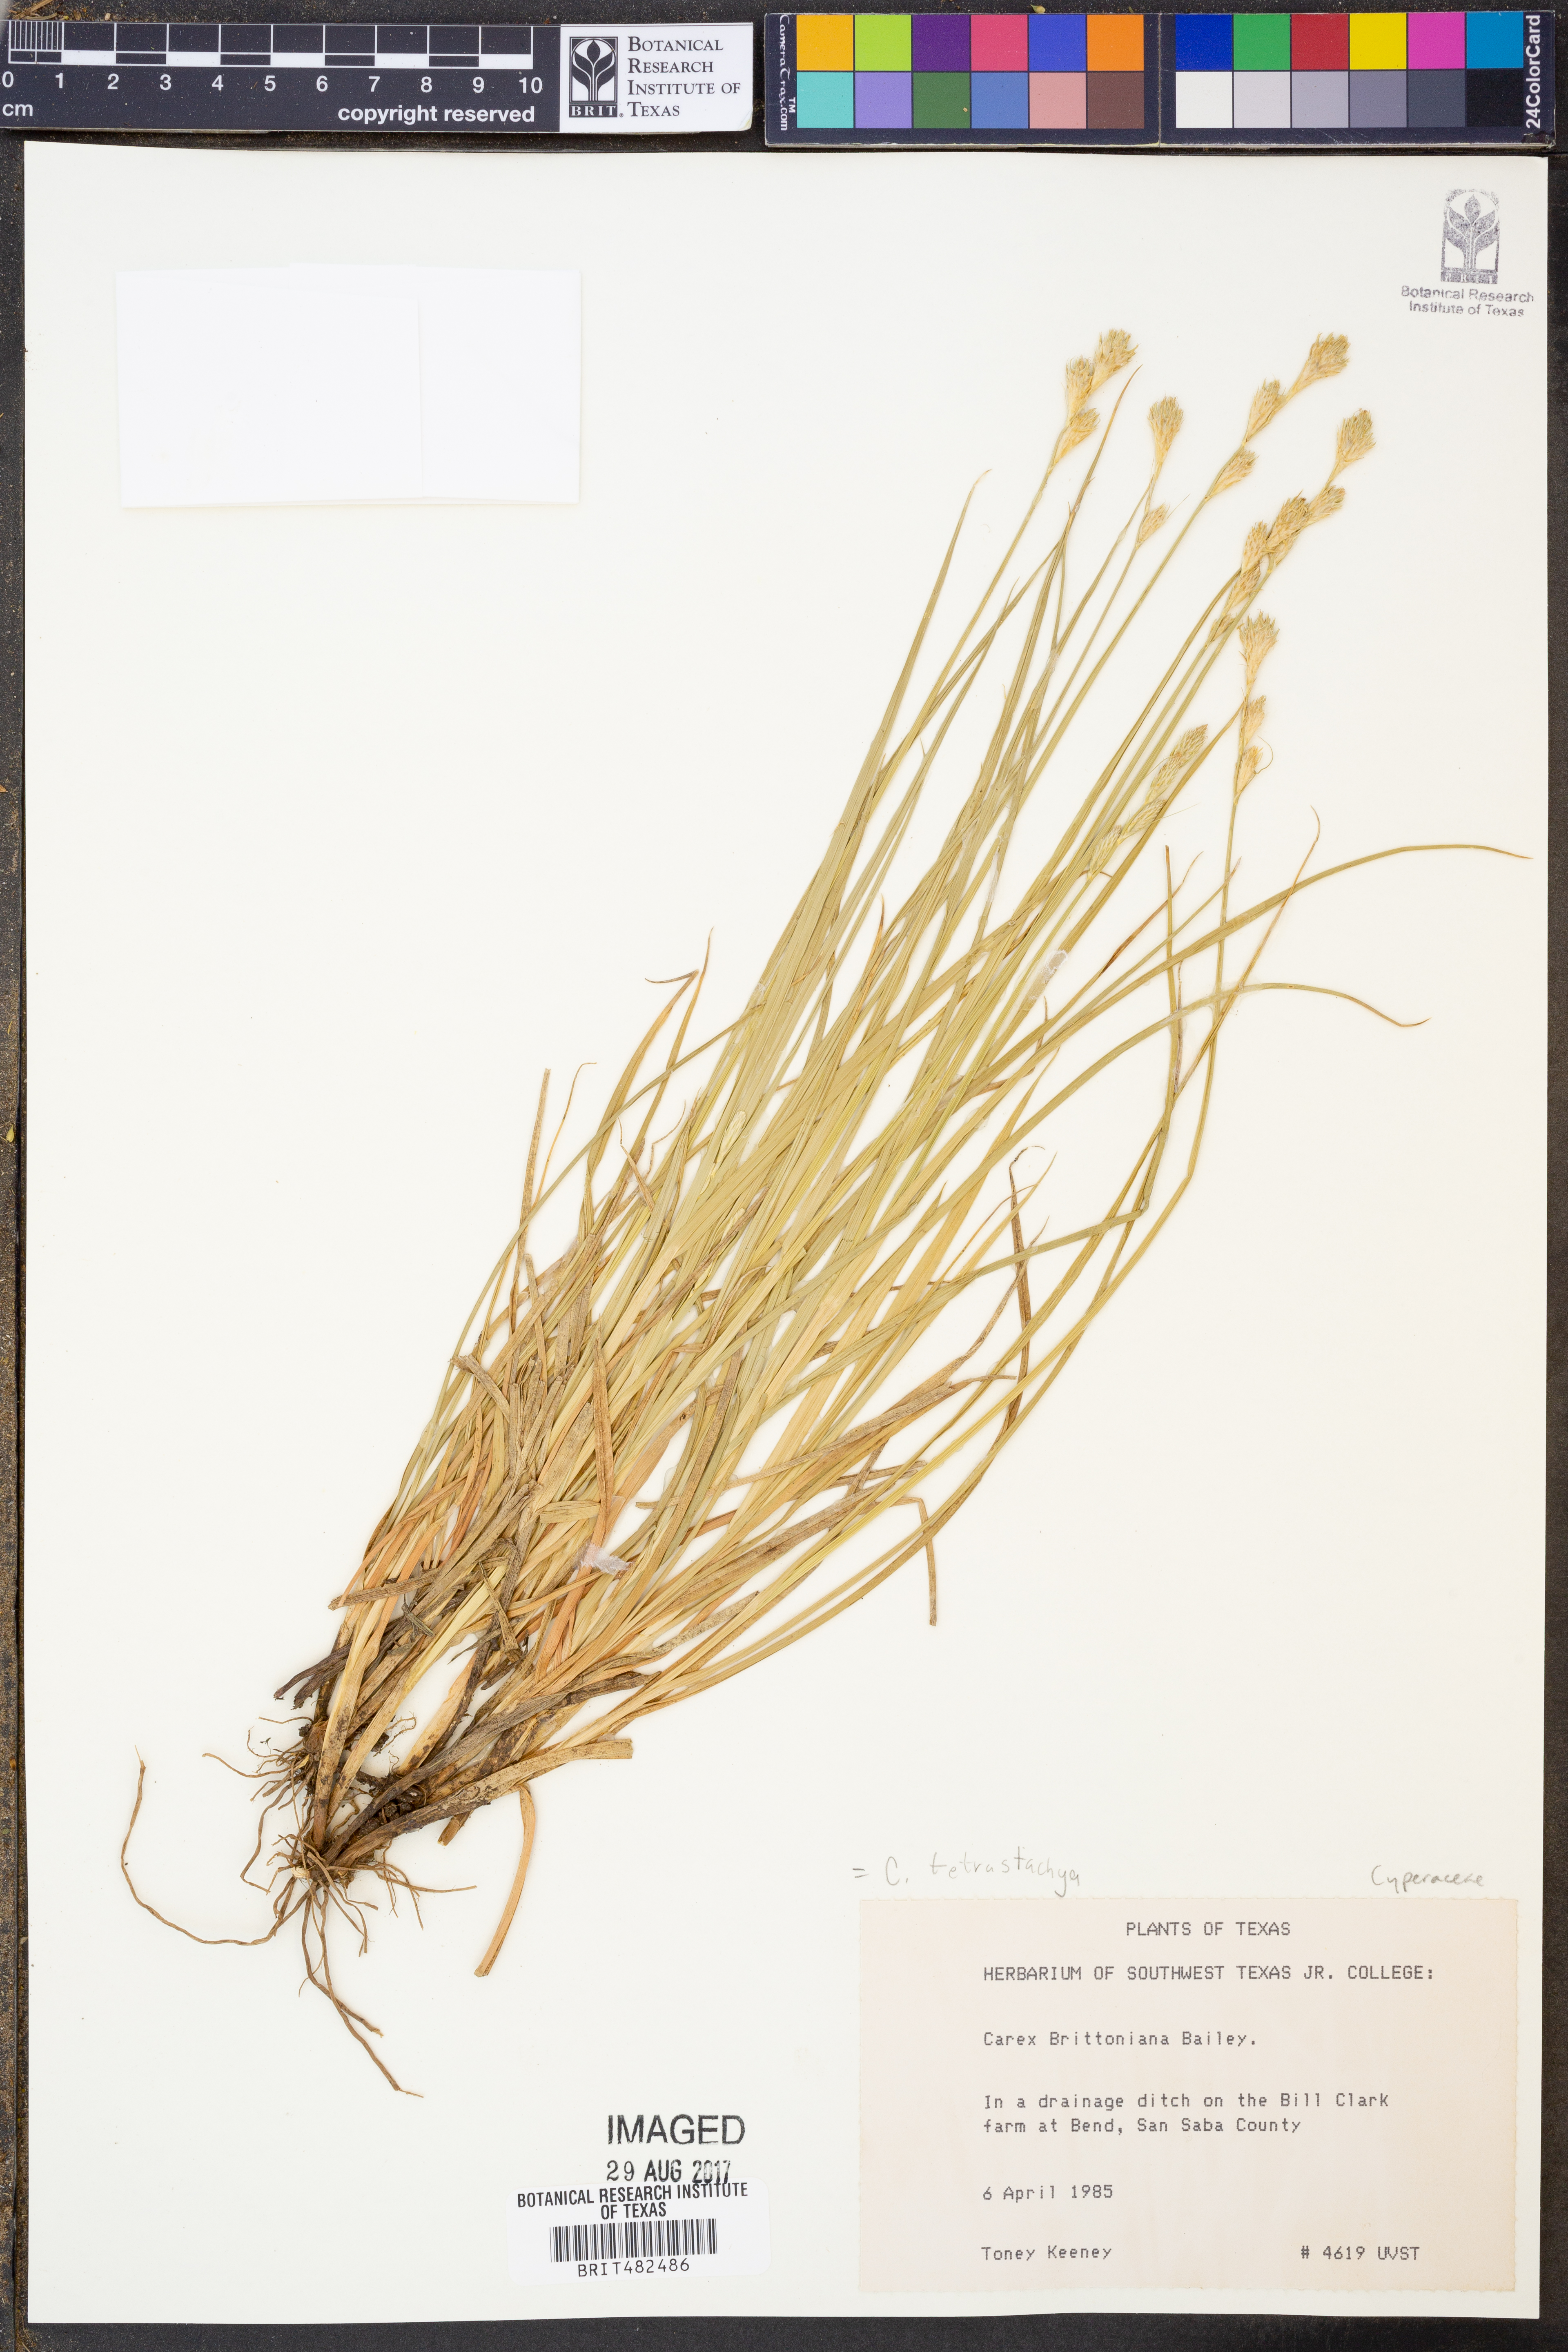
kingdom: Plantae
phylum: Tracheophyta
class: Liliopsida
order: Poales
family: Cyperaceae
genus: Carex
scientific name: Carex tetrastachya
